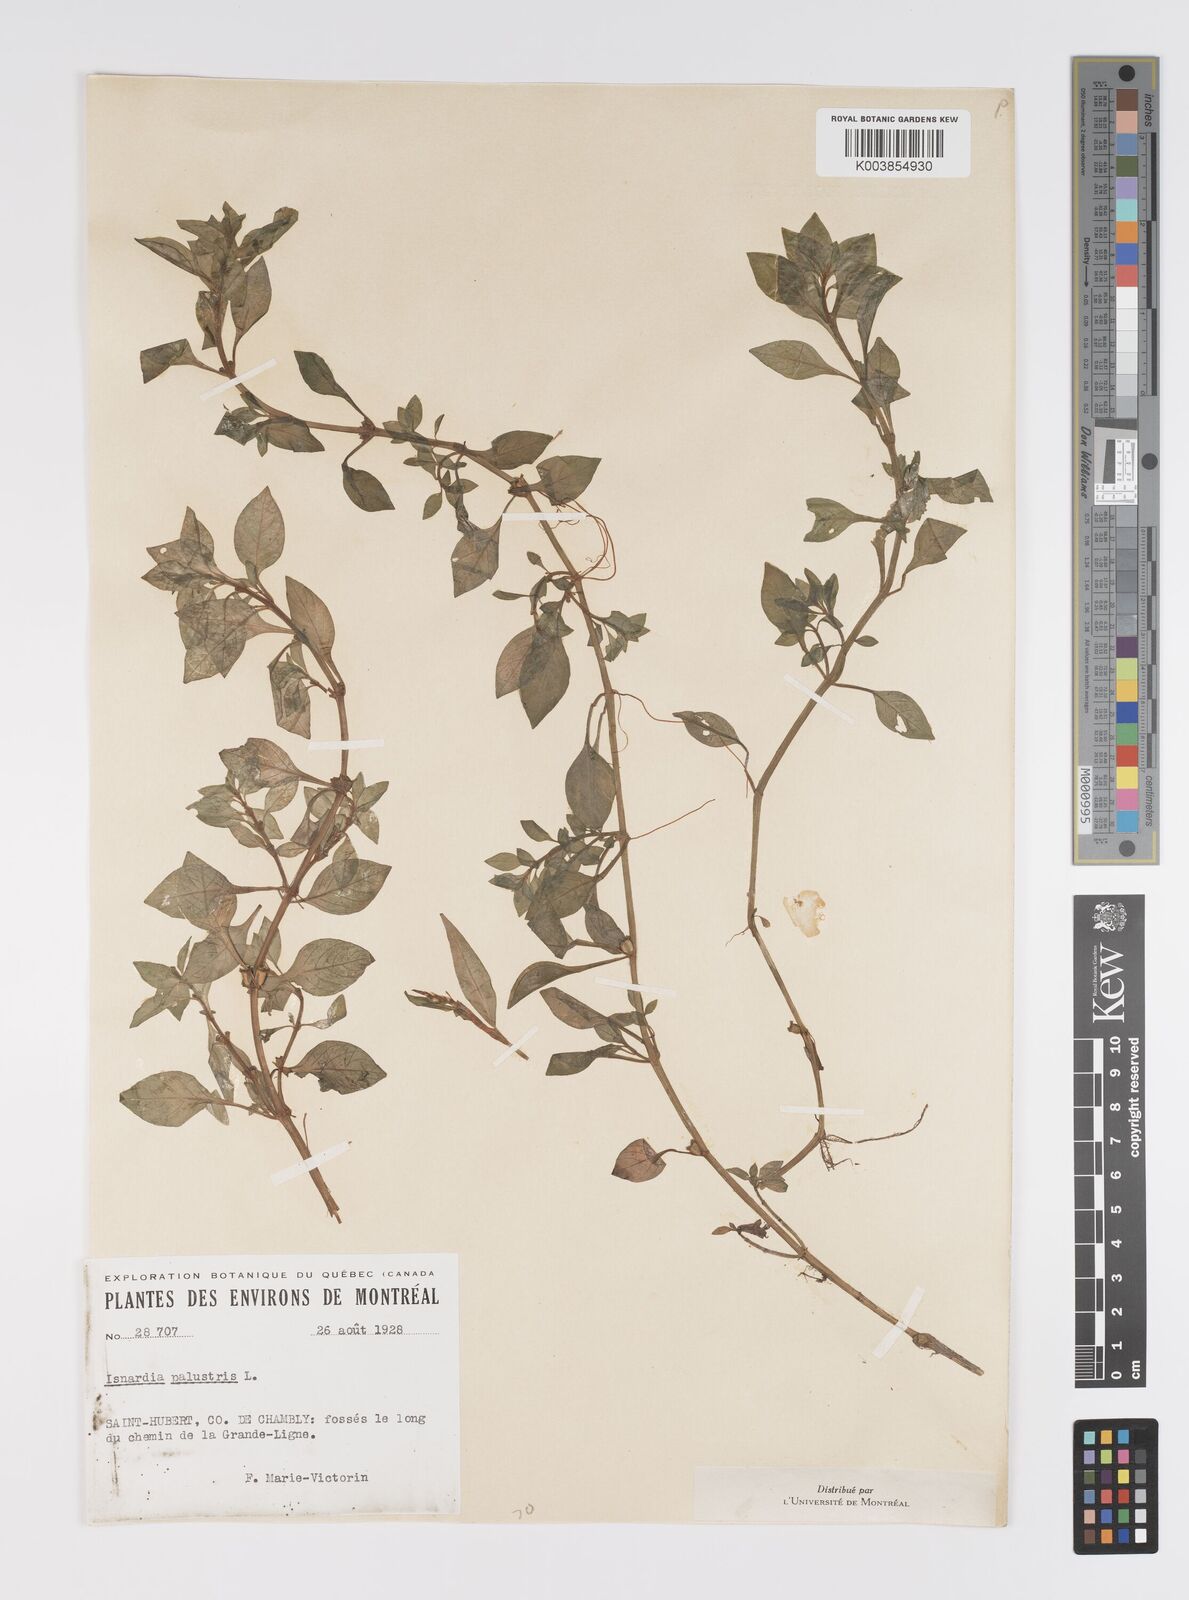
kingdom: Plantae
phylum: Tracheophyta
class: Magnoliopsida
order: Myrtales
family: Onagraceae
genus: Ludwigia
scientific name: Ludwigia palustris
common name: Hampshire-purslane
